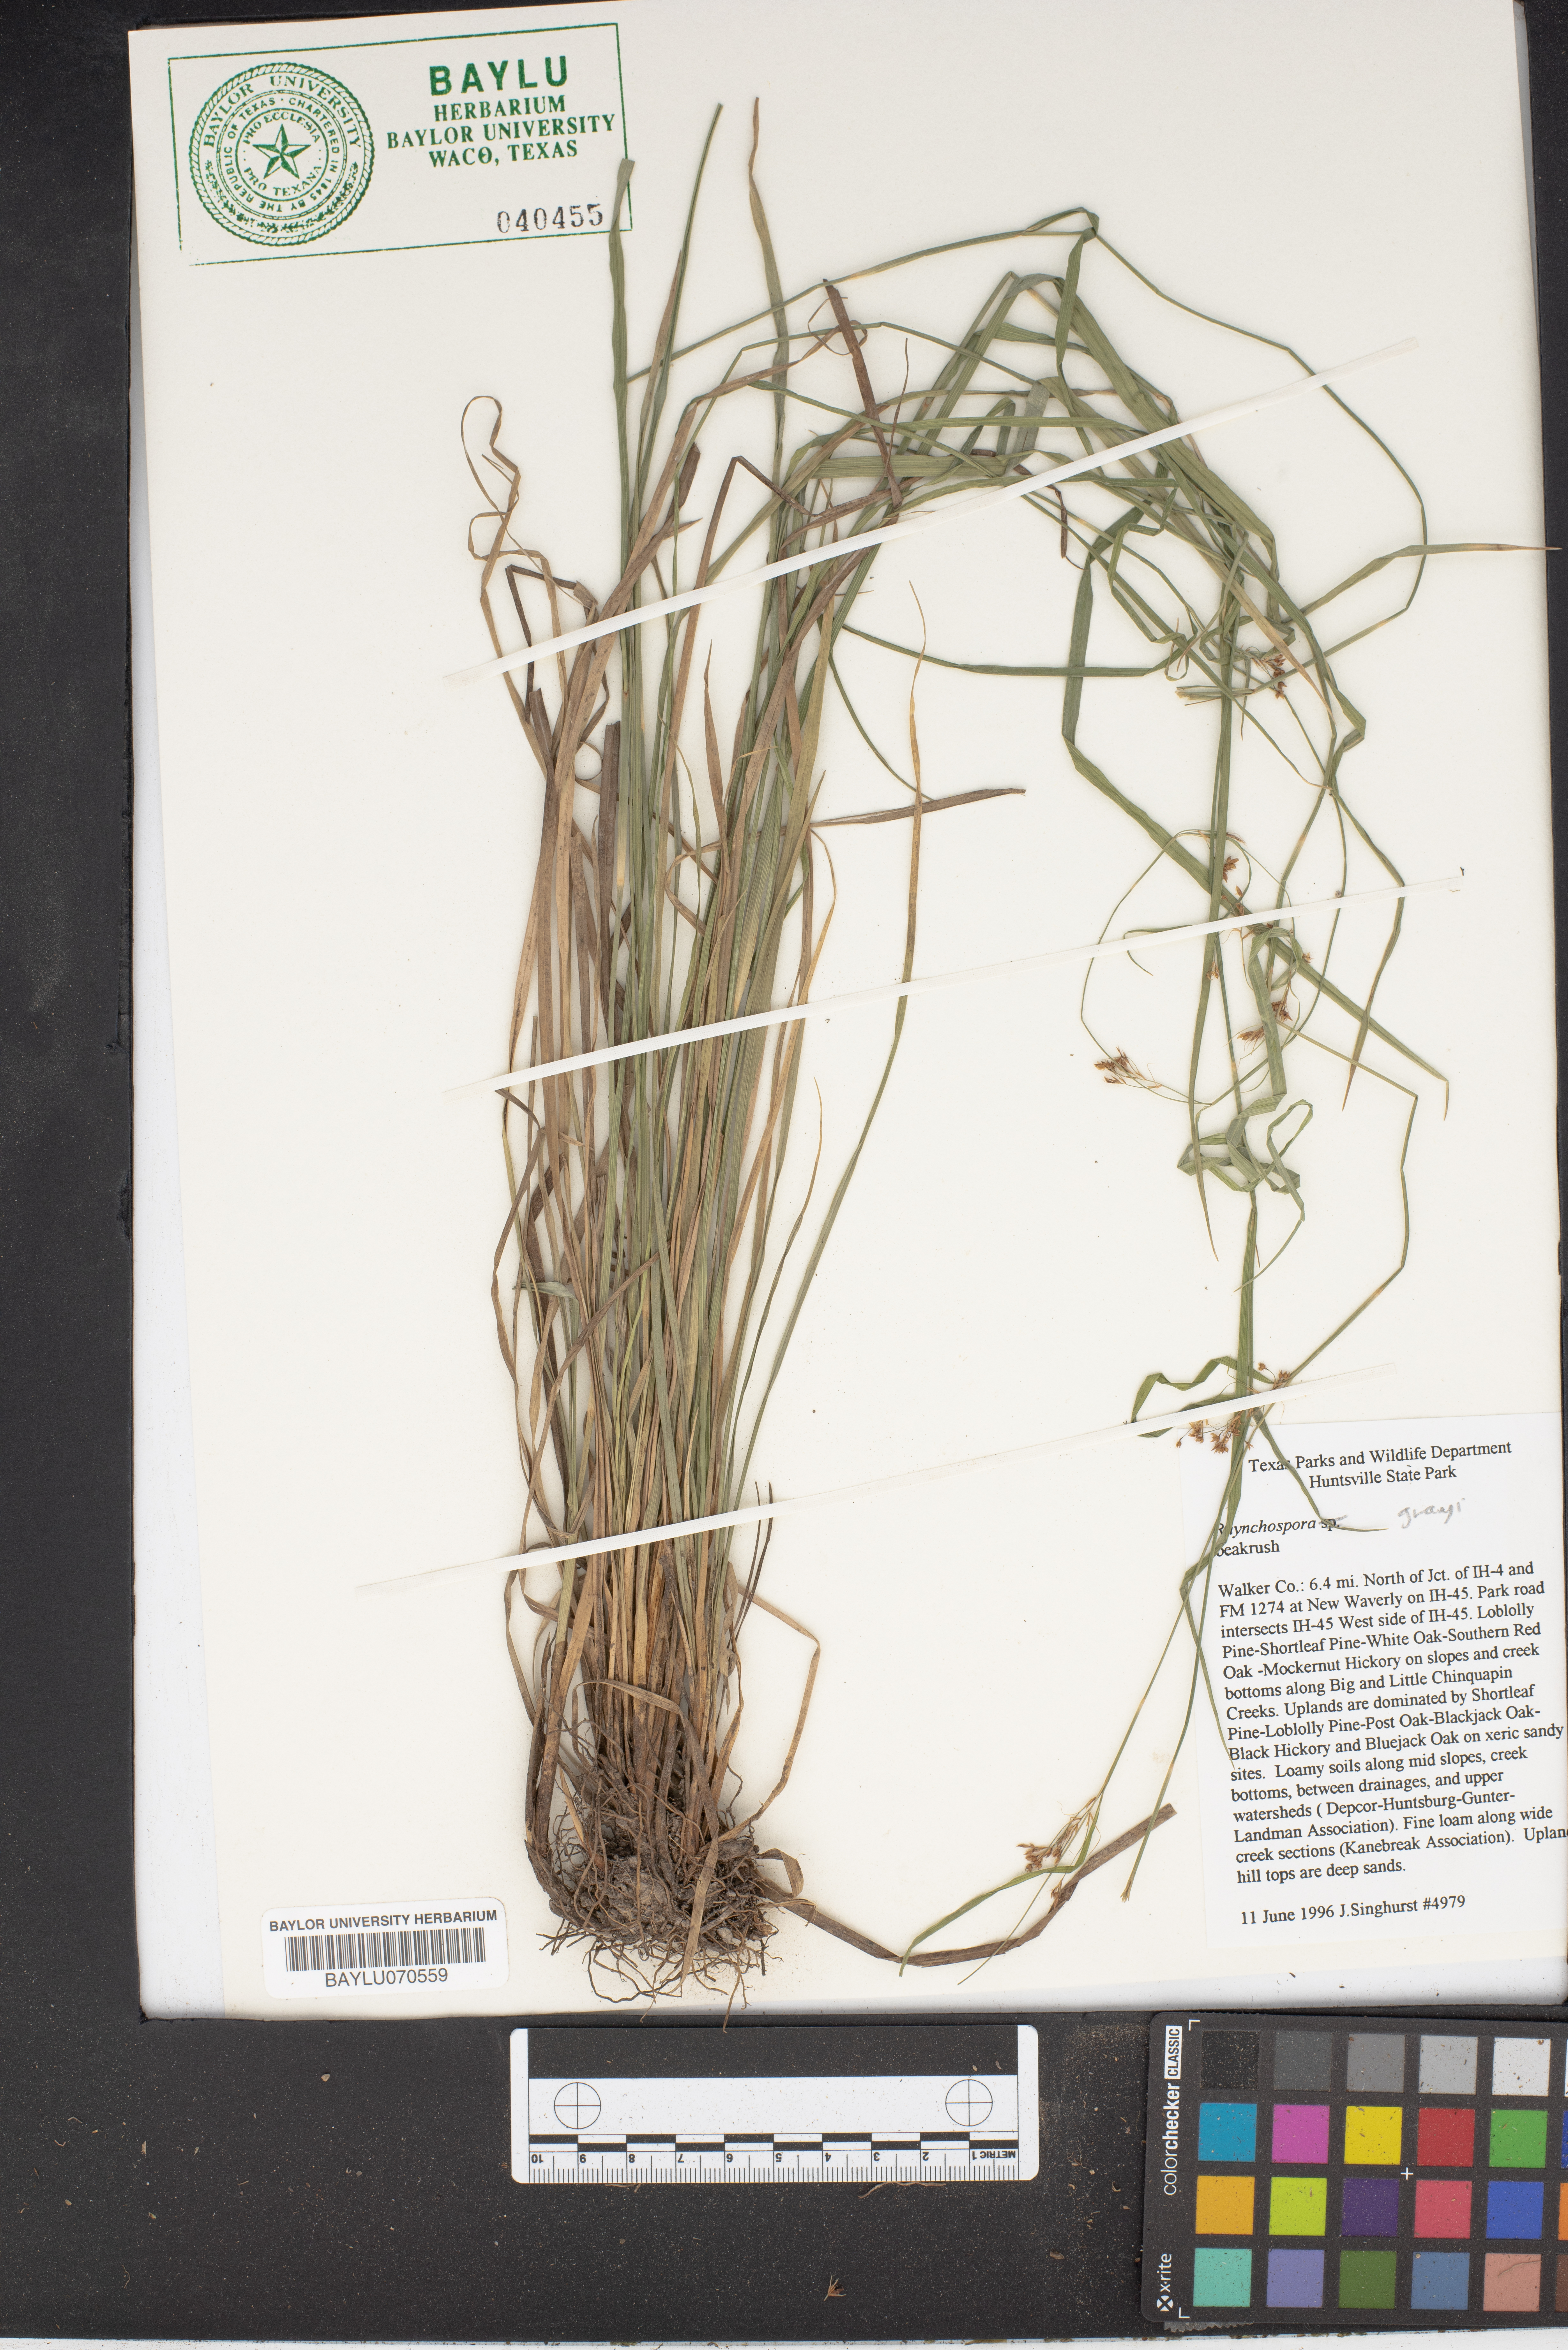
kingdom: Plantae
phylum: Tracheophyta
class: Liliopsida
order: Poales
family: Cyperaceae
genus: Rhynchospora
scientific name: Rhynchospora grayi
